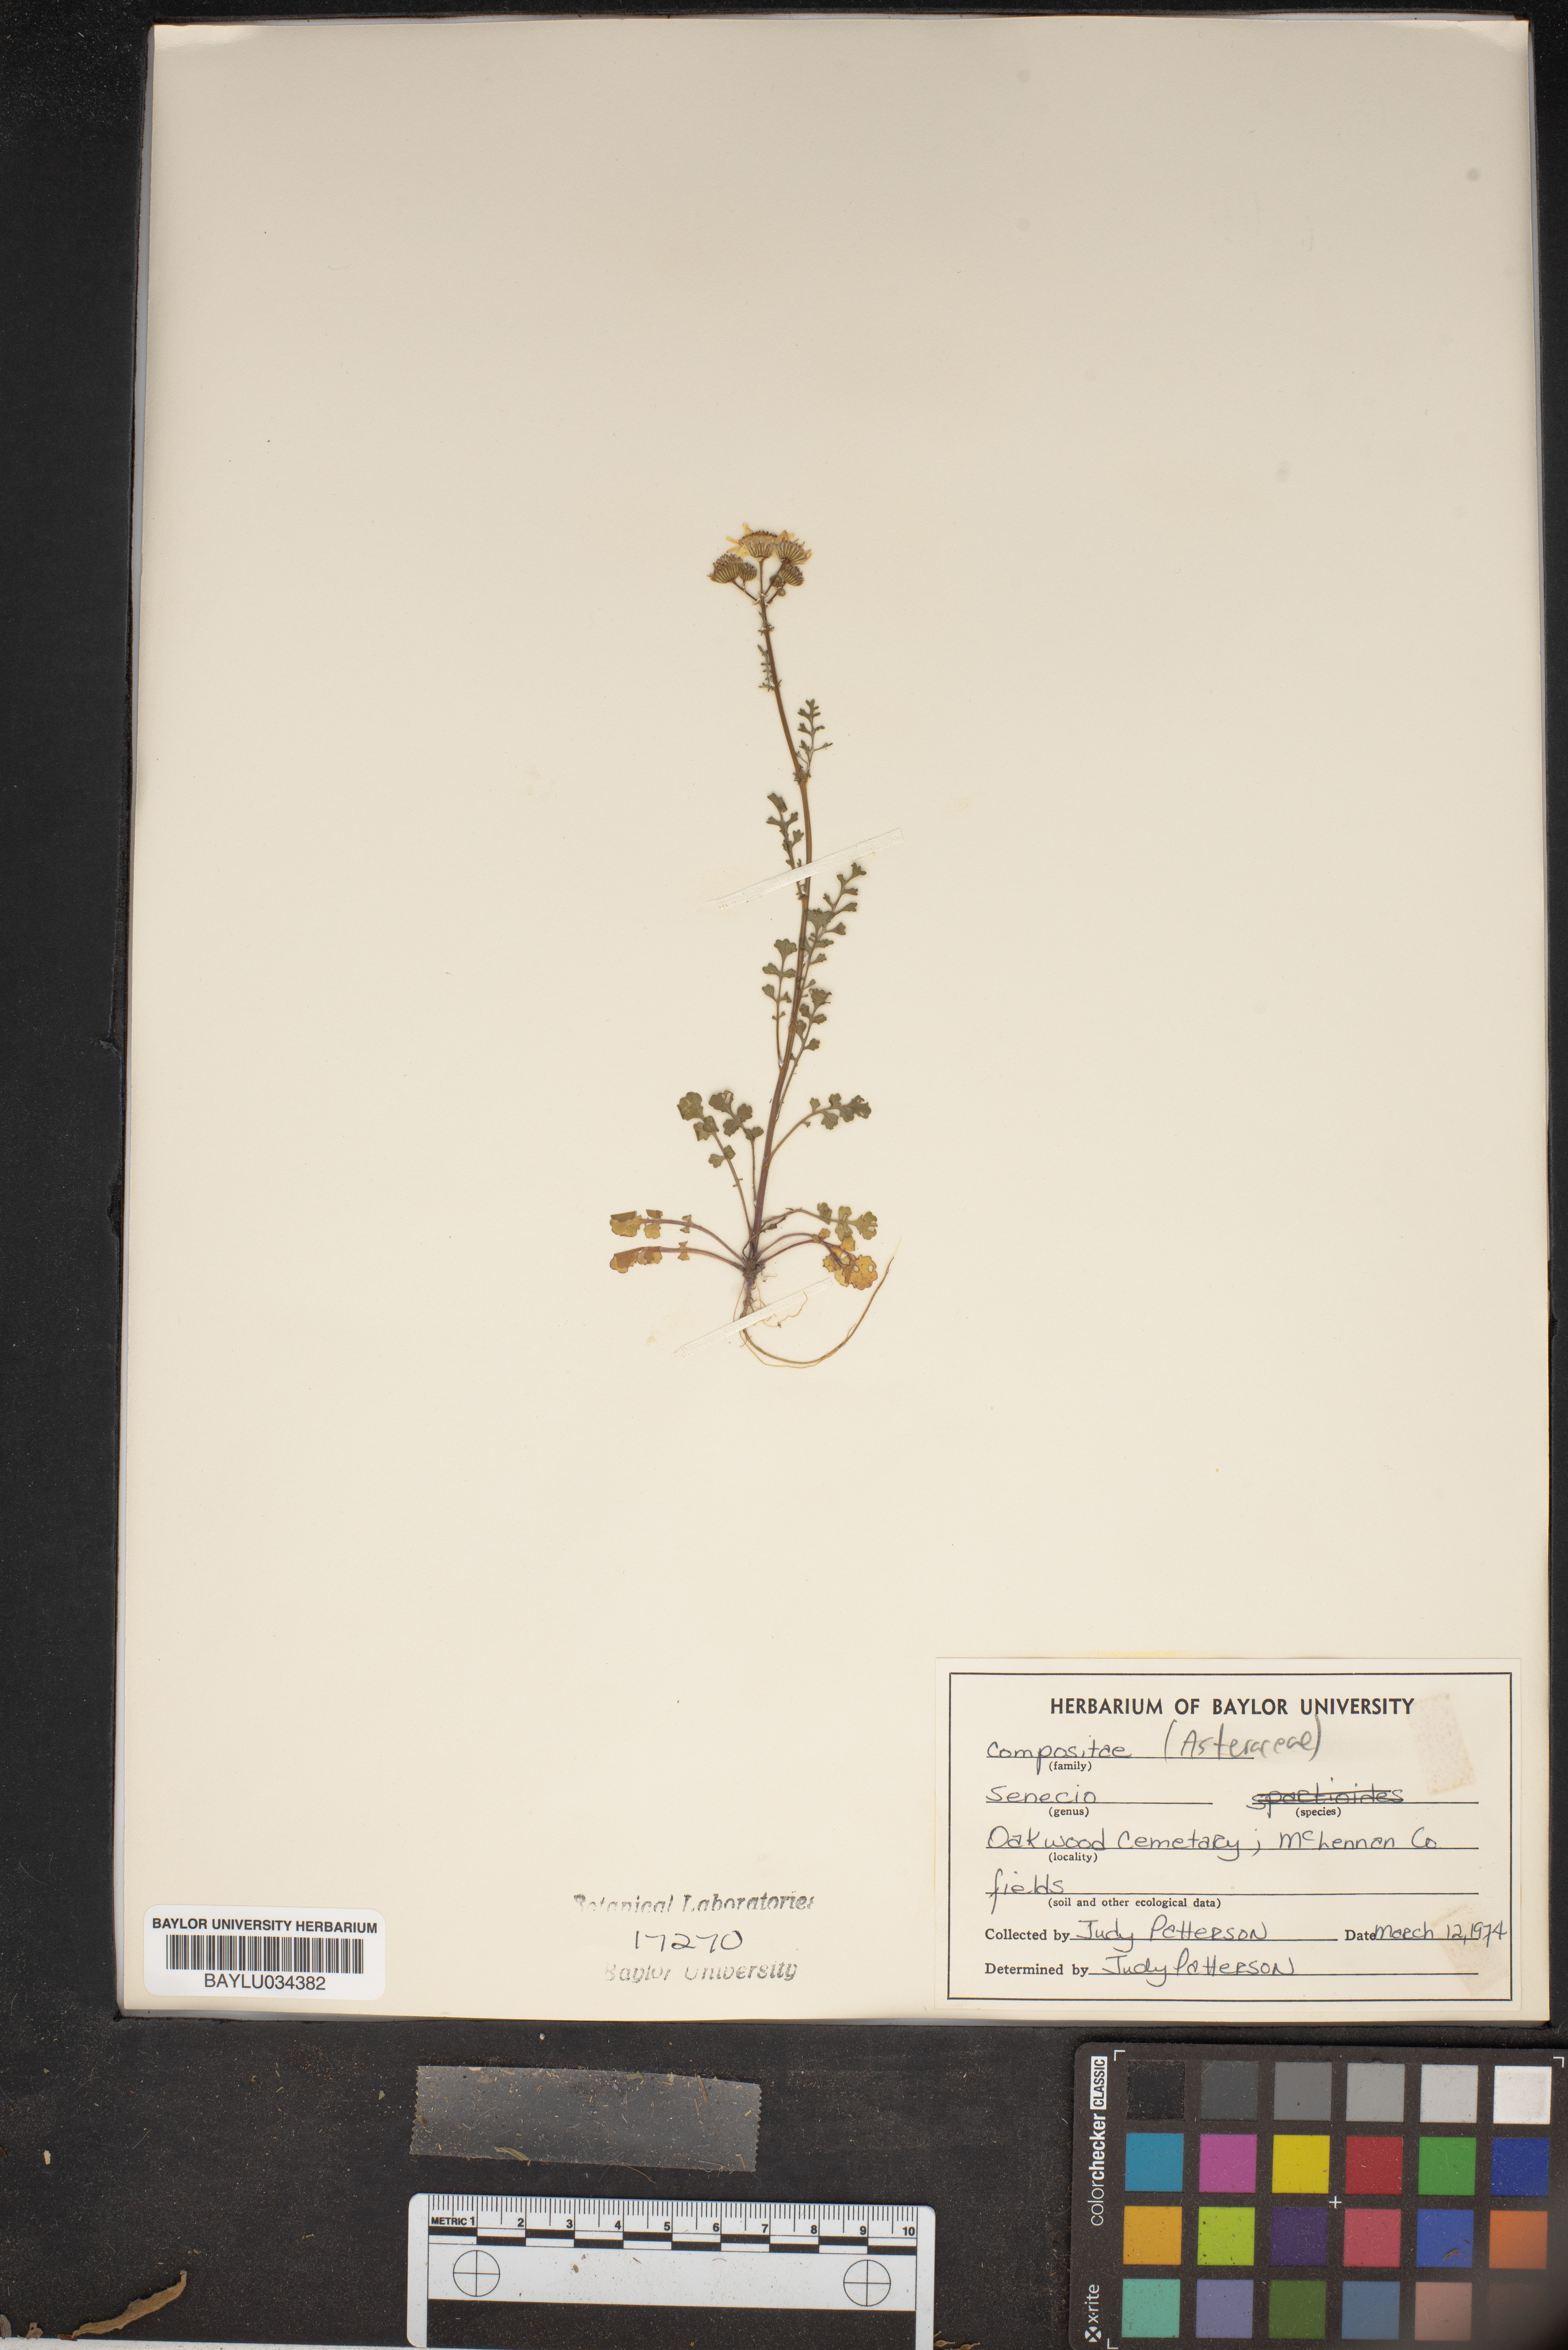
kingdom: Plantae
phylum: Tracheophyta
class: Magnoliopsida
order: Asterales
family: Asteraceae
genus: Senecio
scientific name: Senecio
